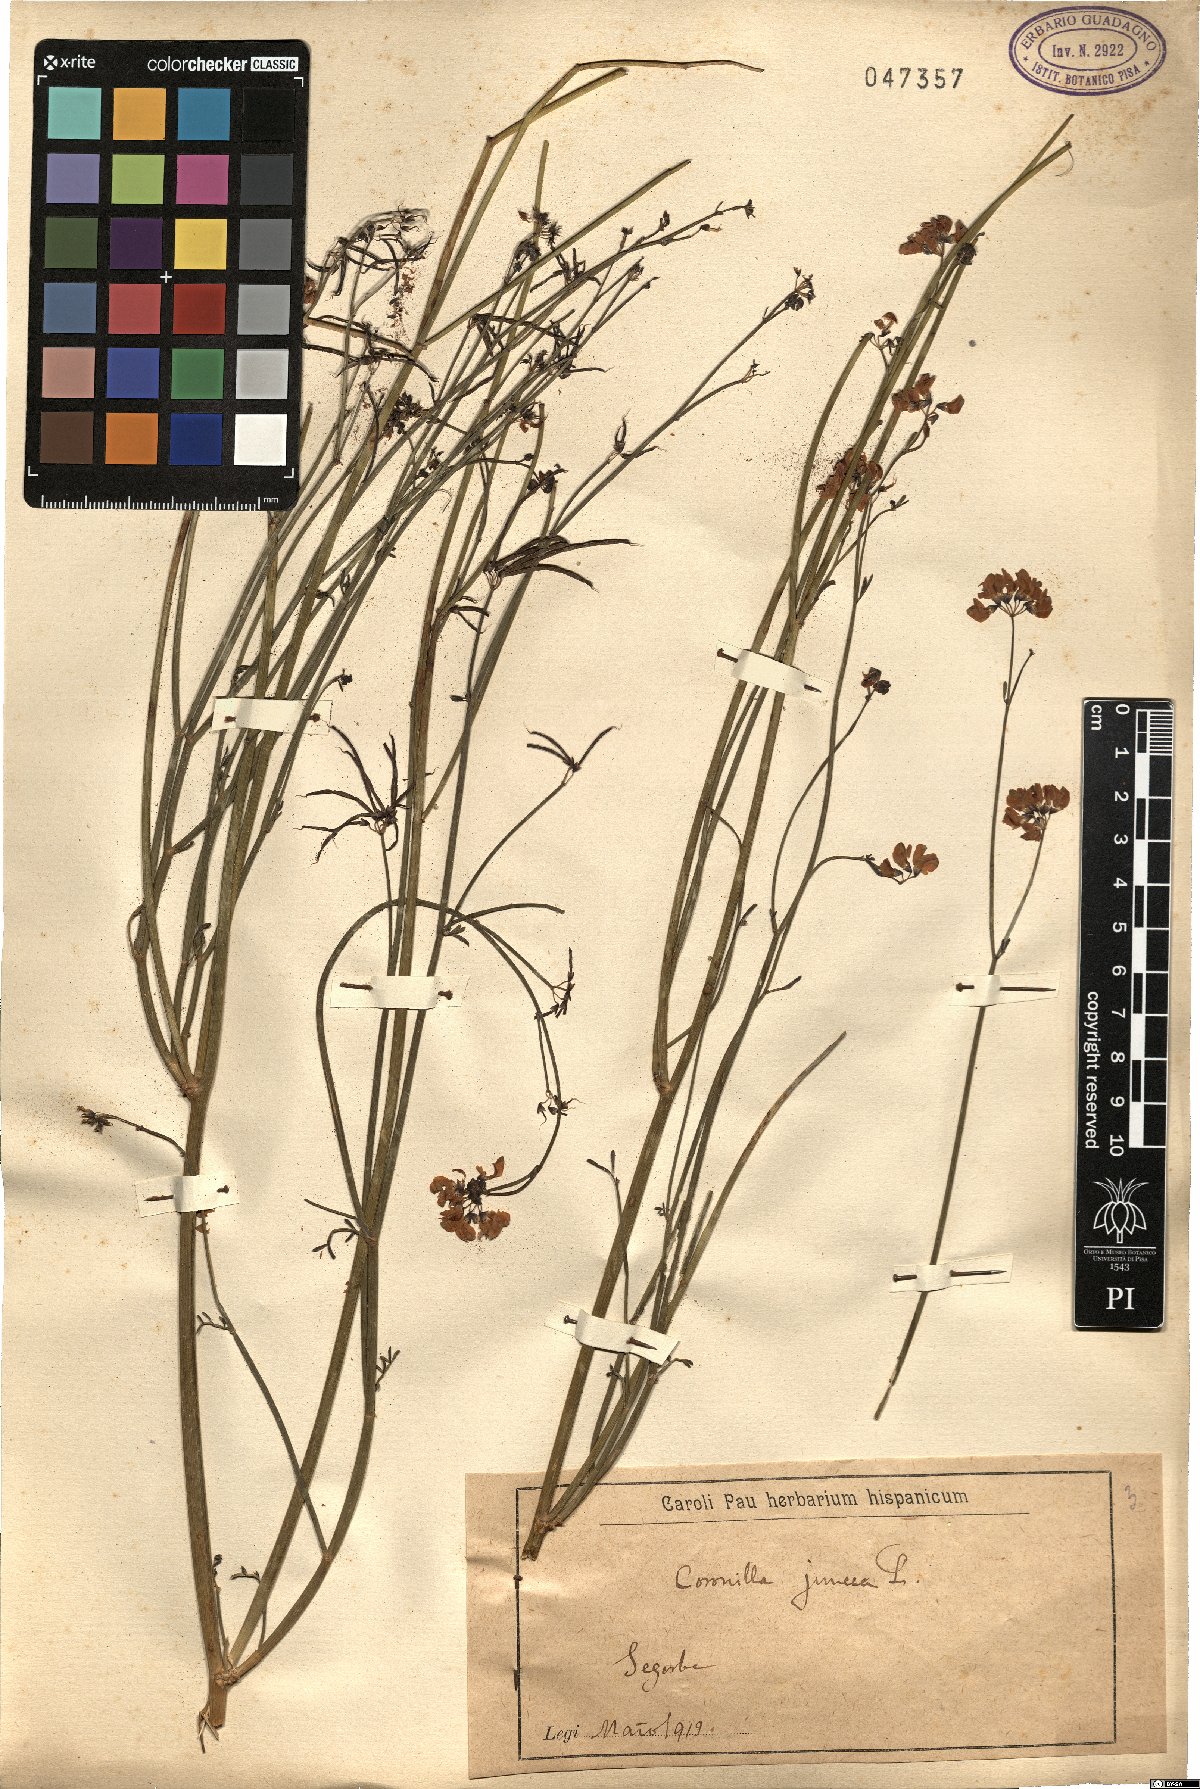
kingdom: Plantae
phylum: Tracheophyta
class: Magnoliopsida
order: Fabales
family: Fabaceae
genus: Coronilla
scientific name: Coronilla juncea
